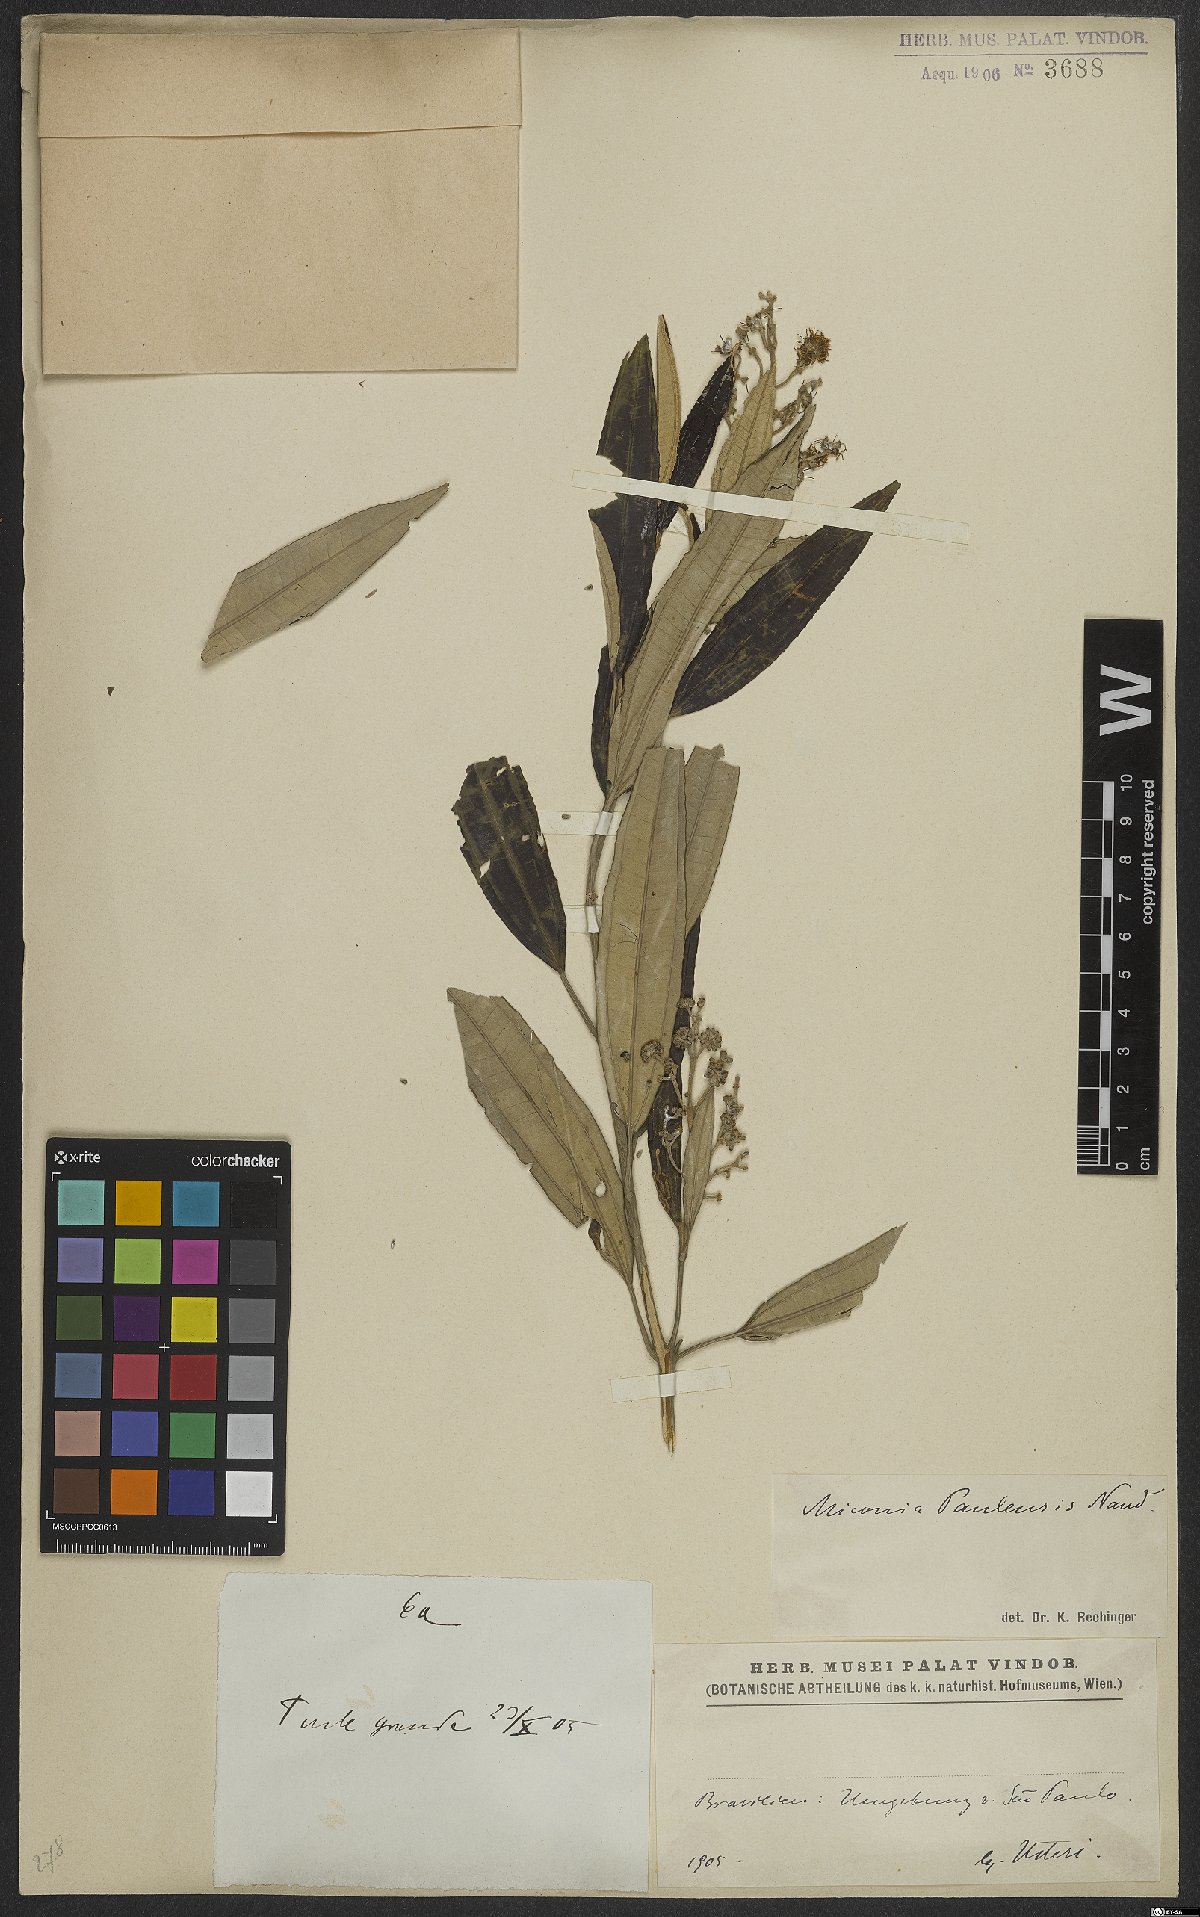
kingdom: Plantae
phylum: Tracheophyta
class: Magnoliopsida
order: Myrtales
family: Melastomataceae
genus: Miconia
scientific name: Miconia cinerascens
